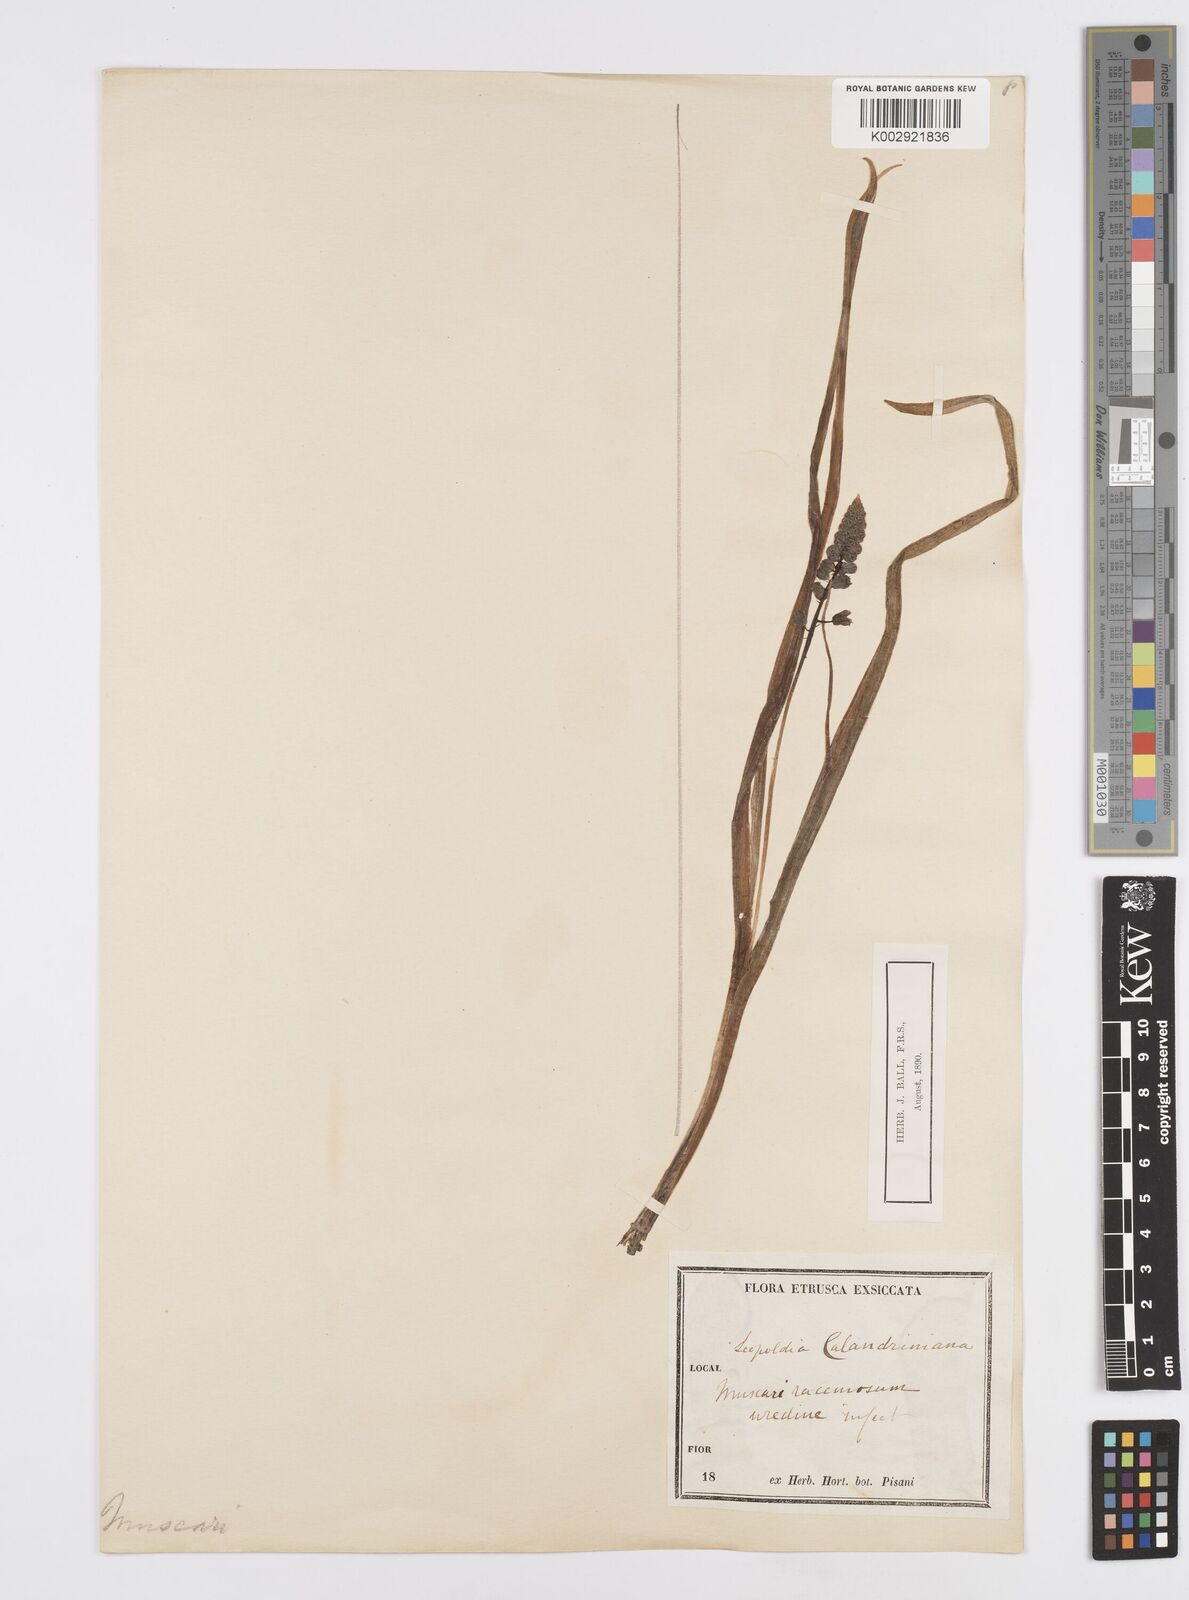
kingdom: Plantae
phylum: Tracheophyta
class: Liliopsida
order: Asparagales
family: Asparagaceae
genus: Muscari
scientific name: Muscari comosum
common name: Tassel hyacinth
